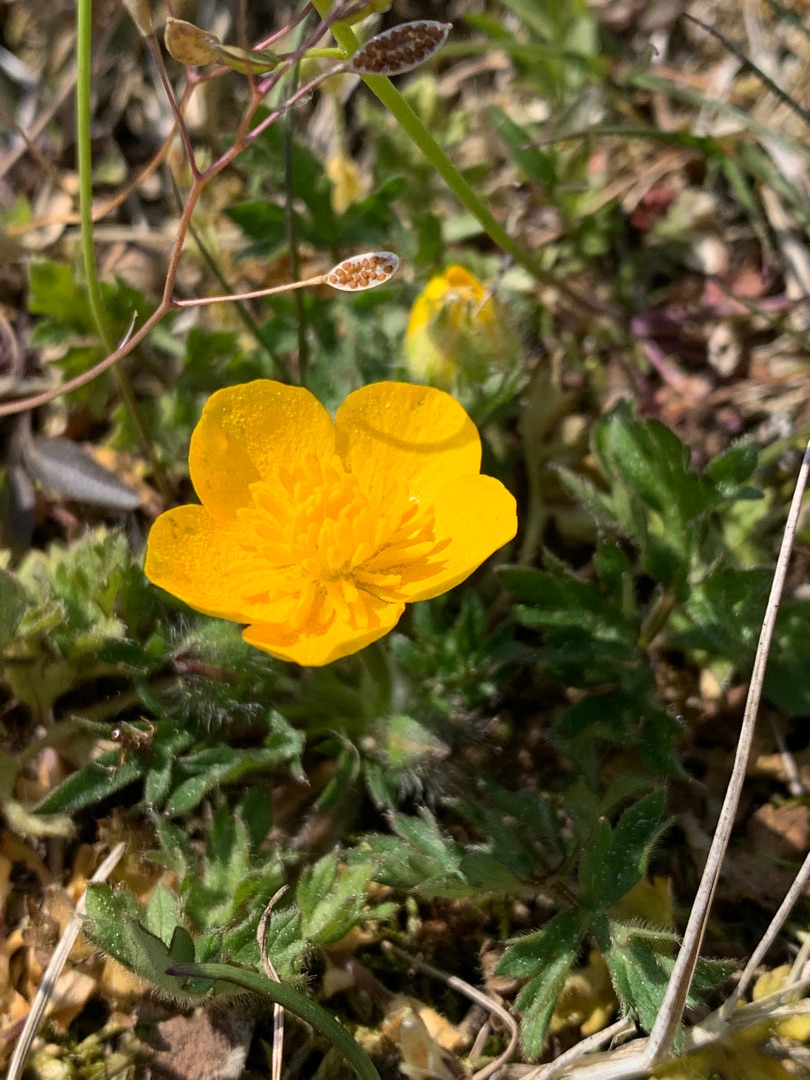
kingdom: Plantae
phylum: Tracheophyta
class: Magnoliopsida
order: Ranunculales
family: Ranunculaceae
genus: Ranunculus
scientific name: Ranunculus bulbosus
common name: Knold-ranunkel
